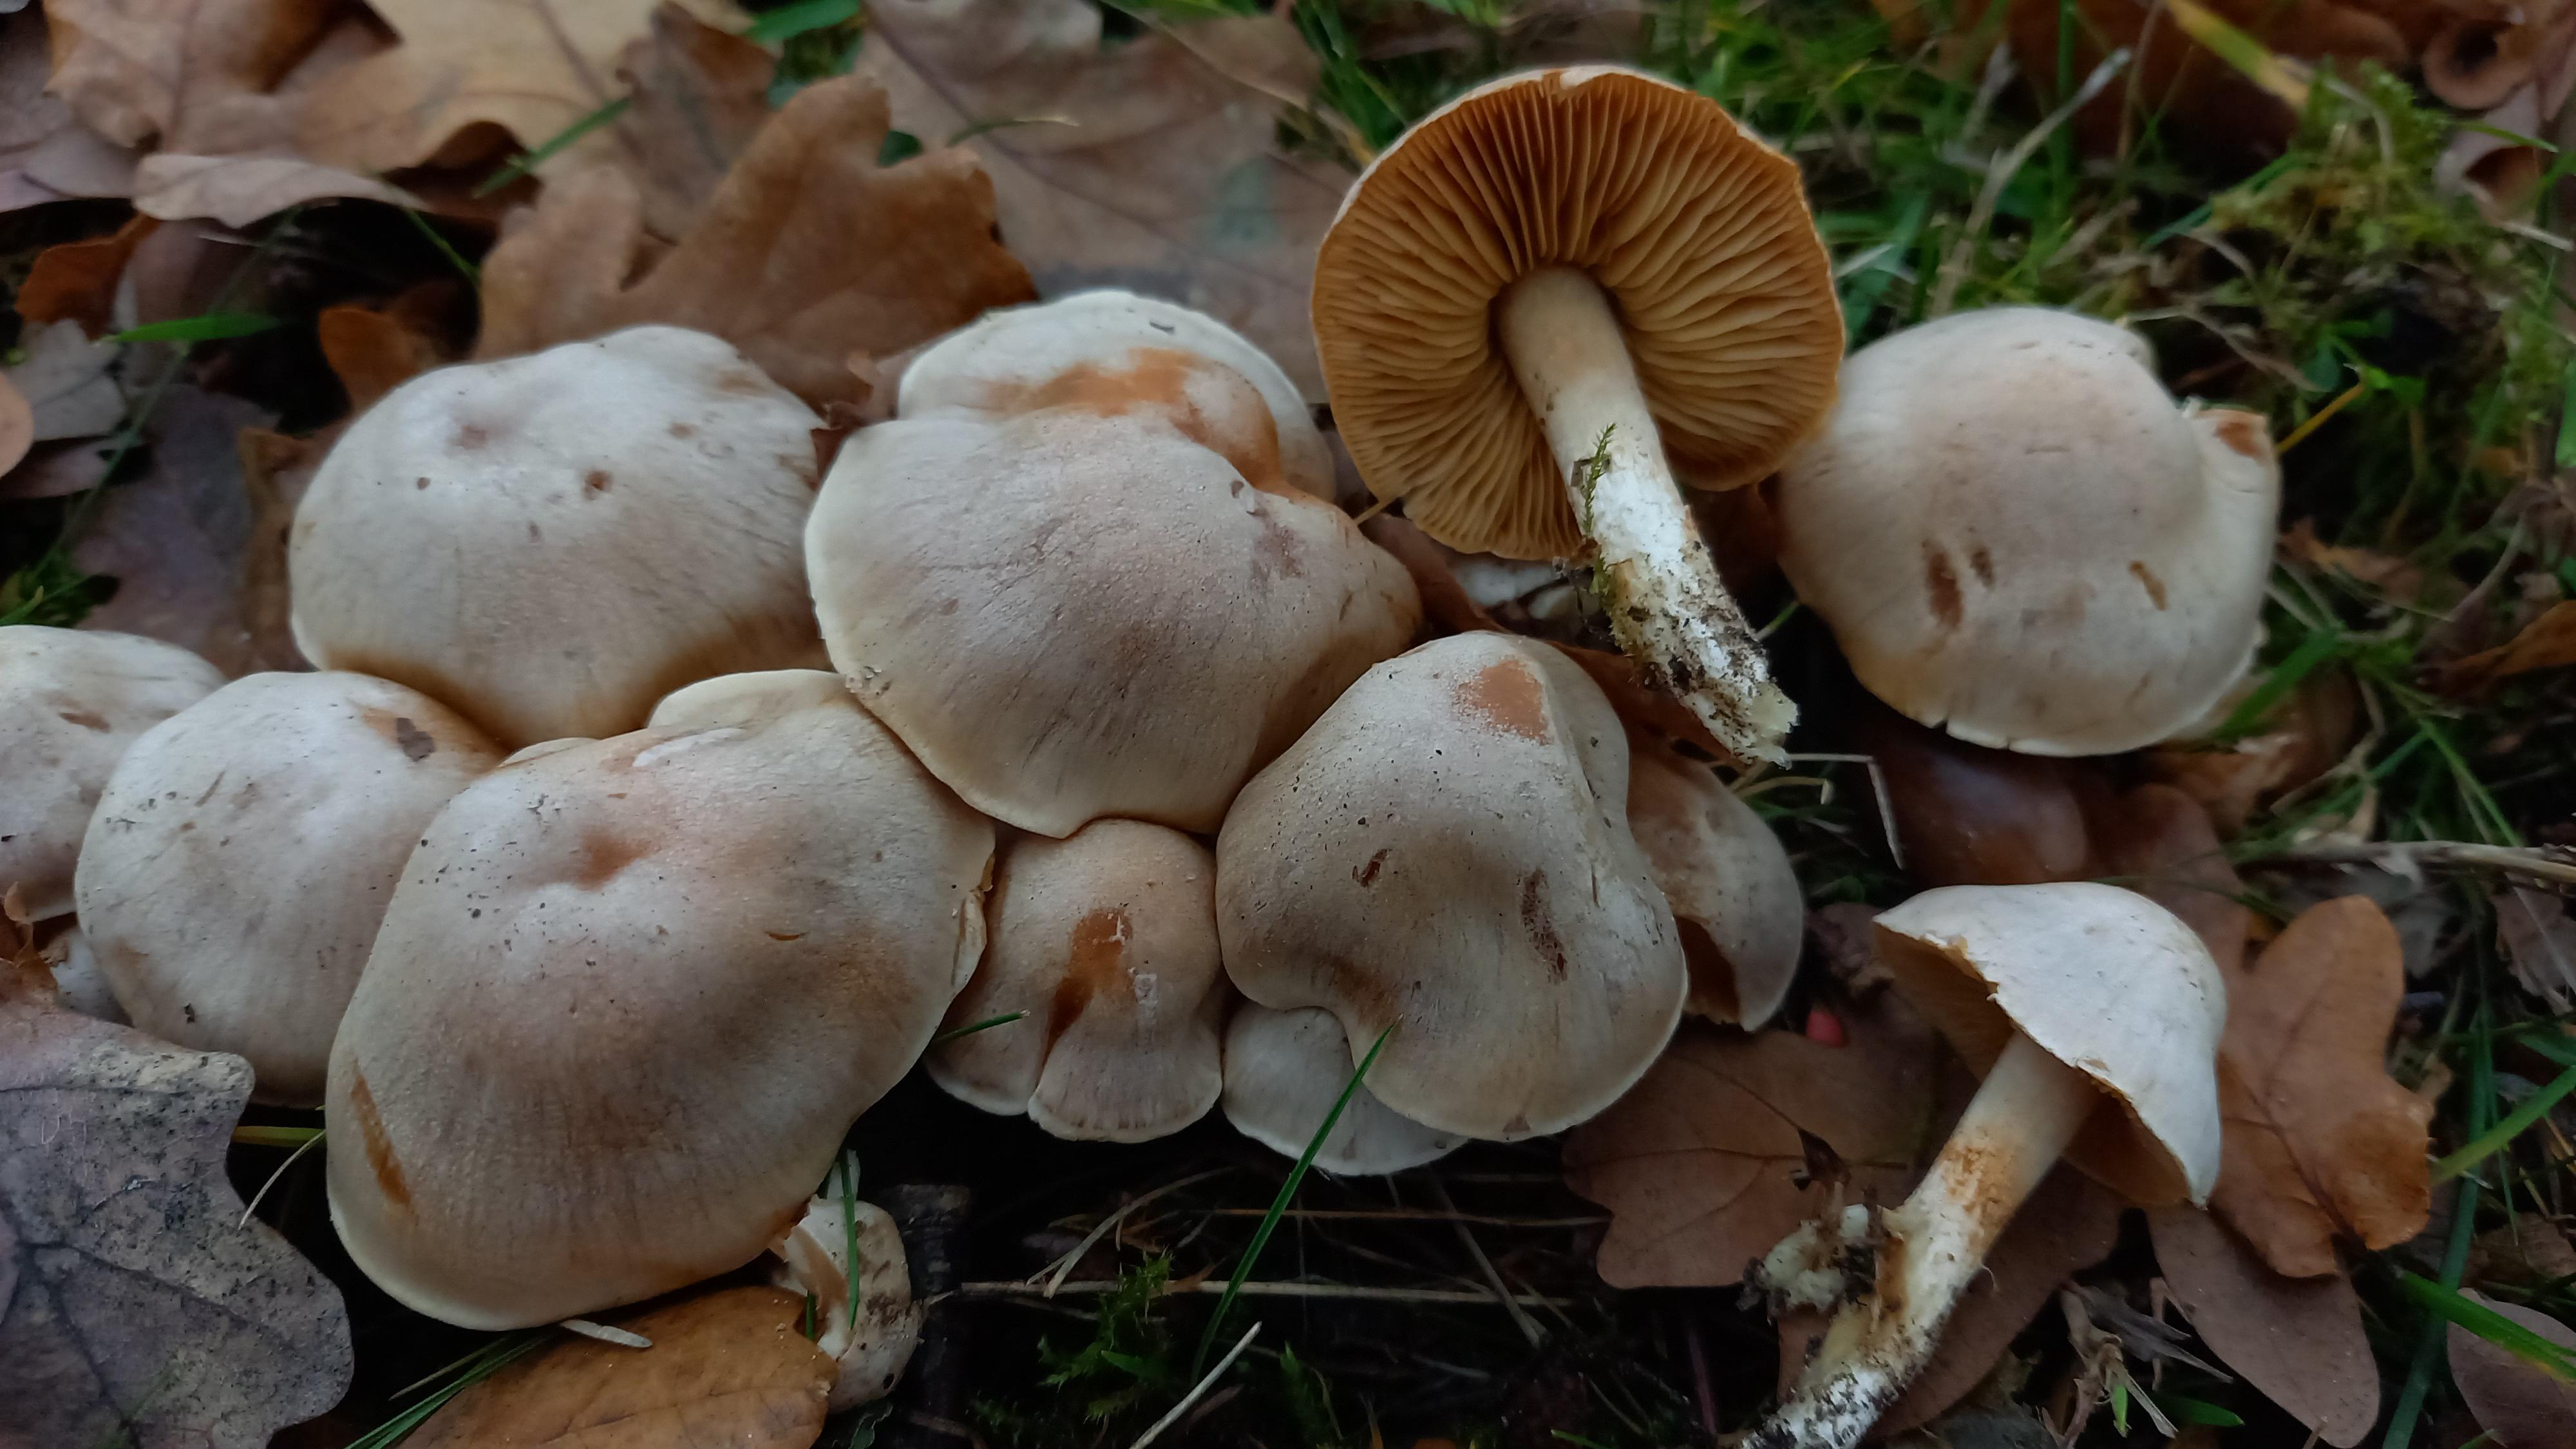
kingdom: Fungi
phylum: Basidiomycota
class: Agaricomycetes
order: Agaricales
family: Cortinariaceae
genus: Thaxterogaster
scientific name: Thaxterogaster leucoluteolus
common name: isabella slørhat
